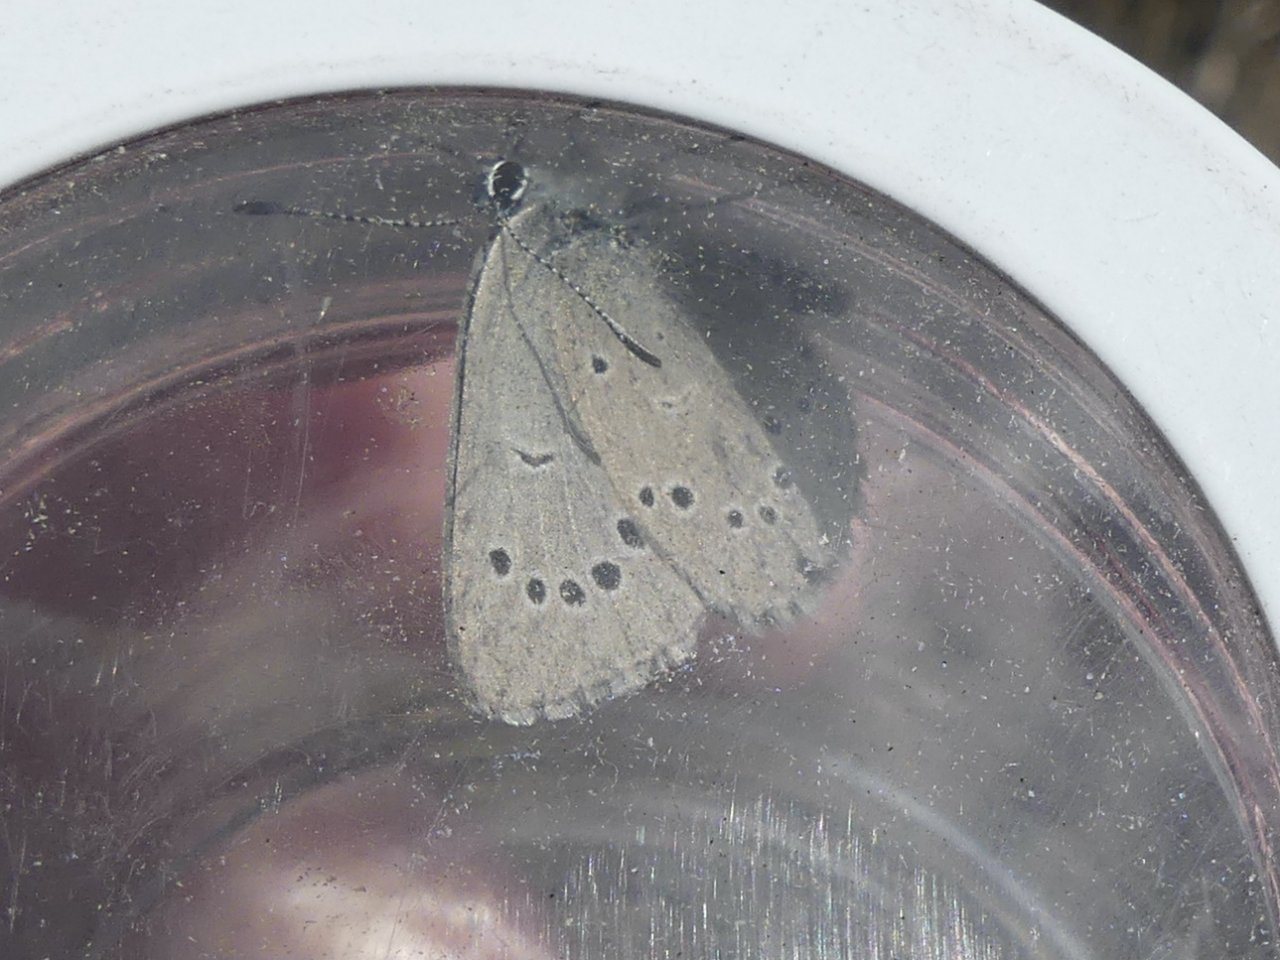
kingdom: Animalia
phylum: Arthropoda
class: Insecta
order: Lepidoptera
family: Lycaenidae
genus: Glaucopsyche
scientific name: Glaucopsyche lygdamus
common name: Silvery Blue
